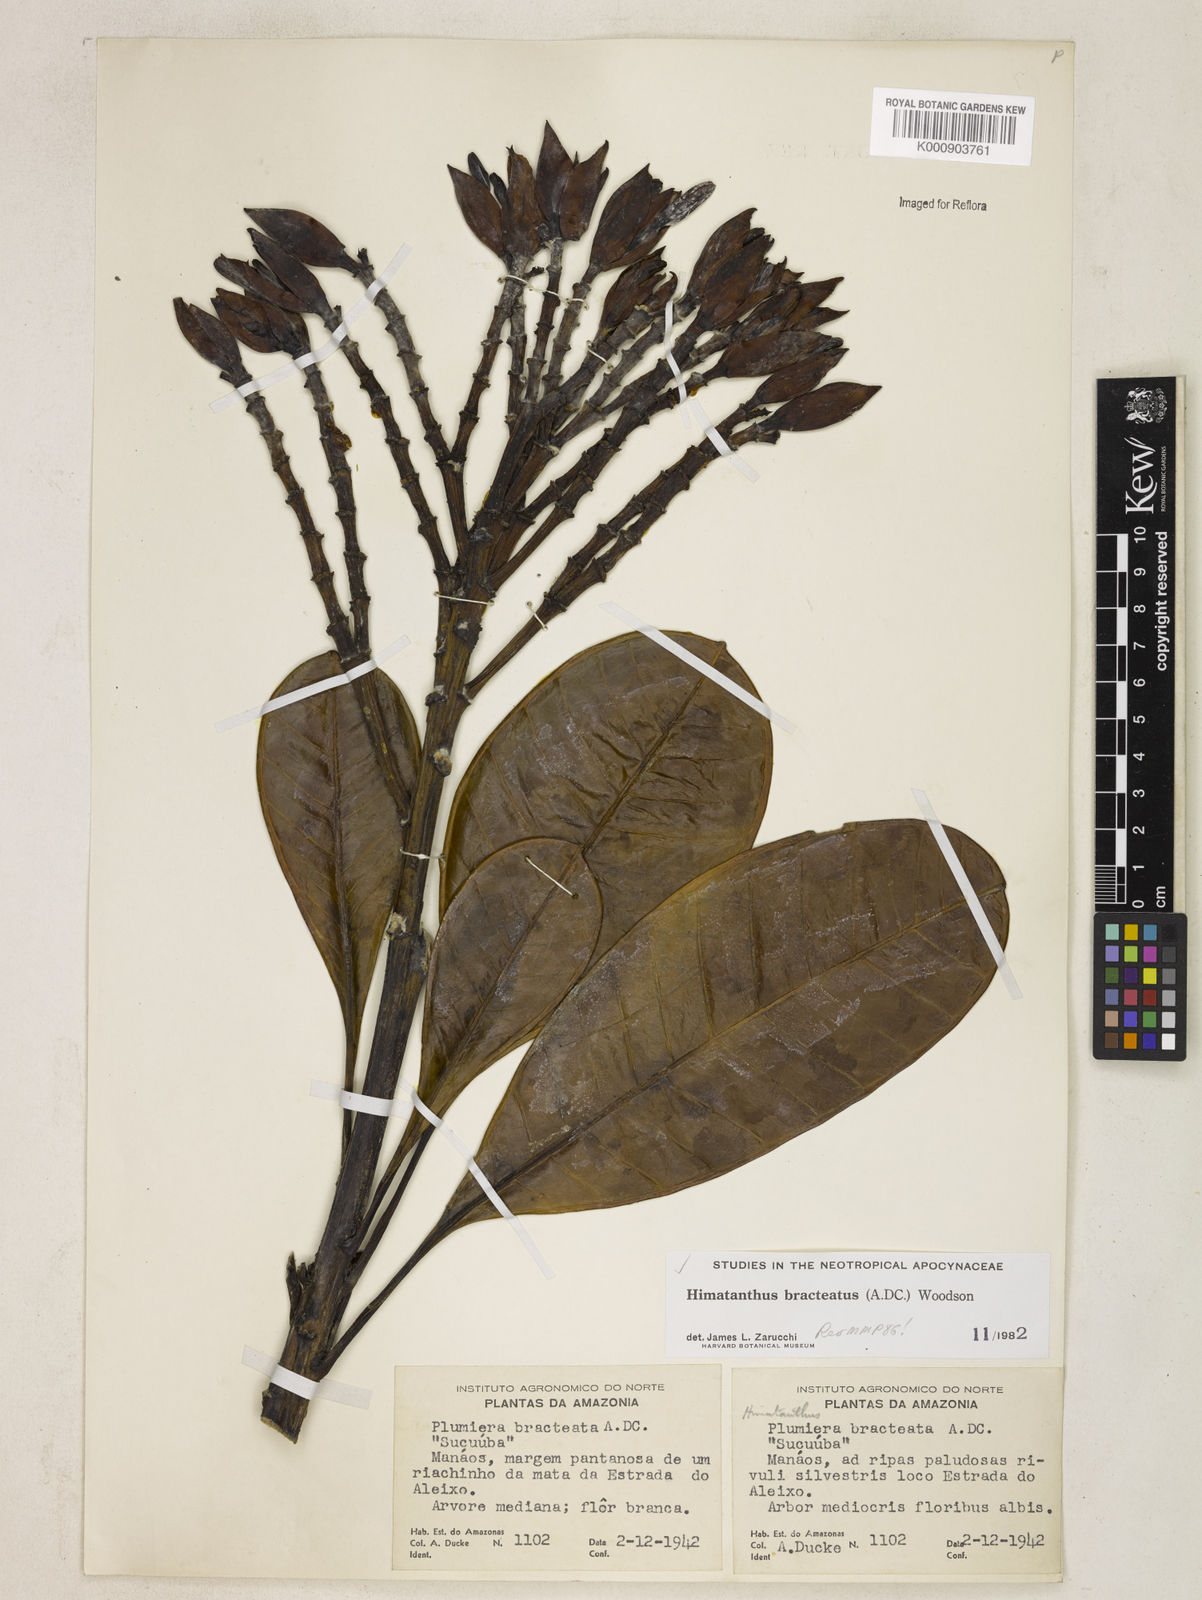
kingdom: Plantae
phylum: Tracheophyta
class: Magnoliopsida
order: Gentianales
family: Apocynaceae
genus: Himatanthus
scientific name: Himatanthus bracteatus
